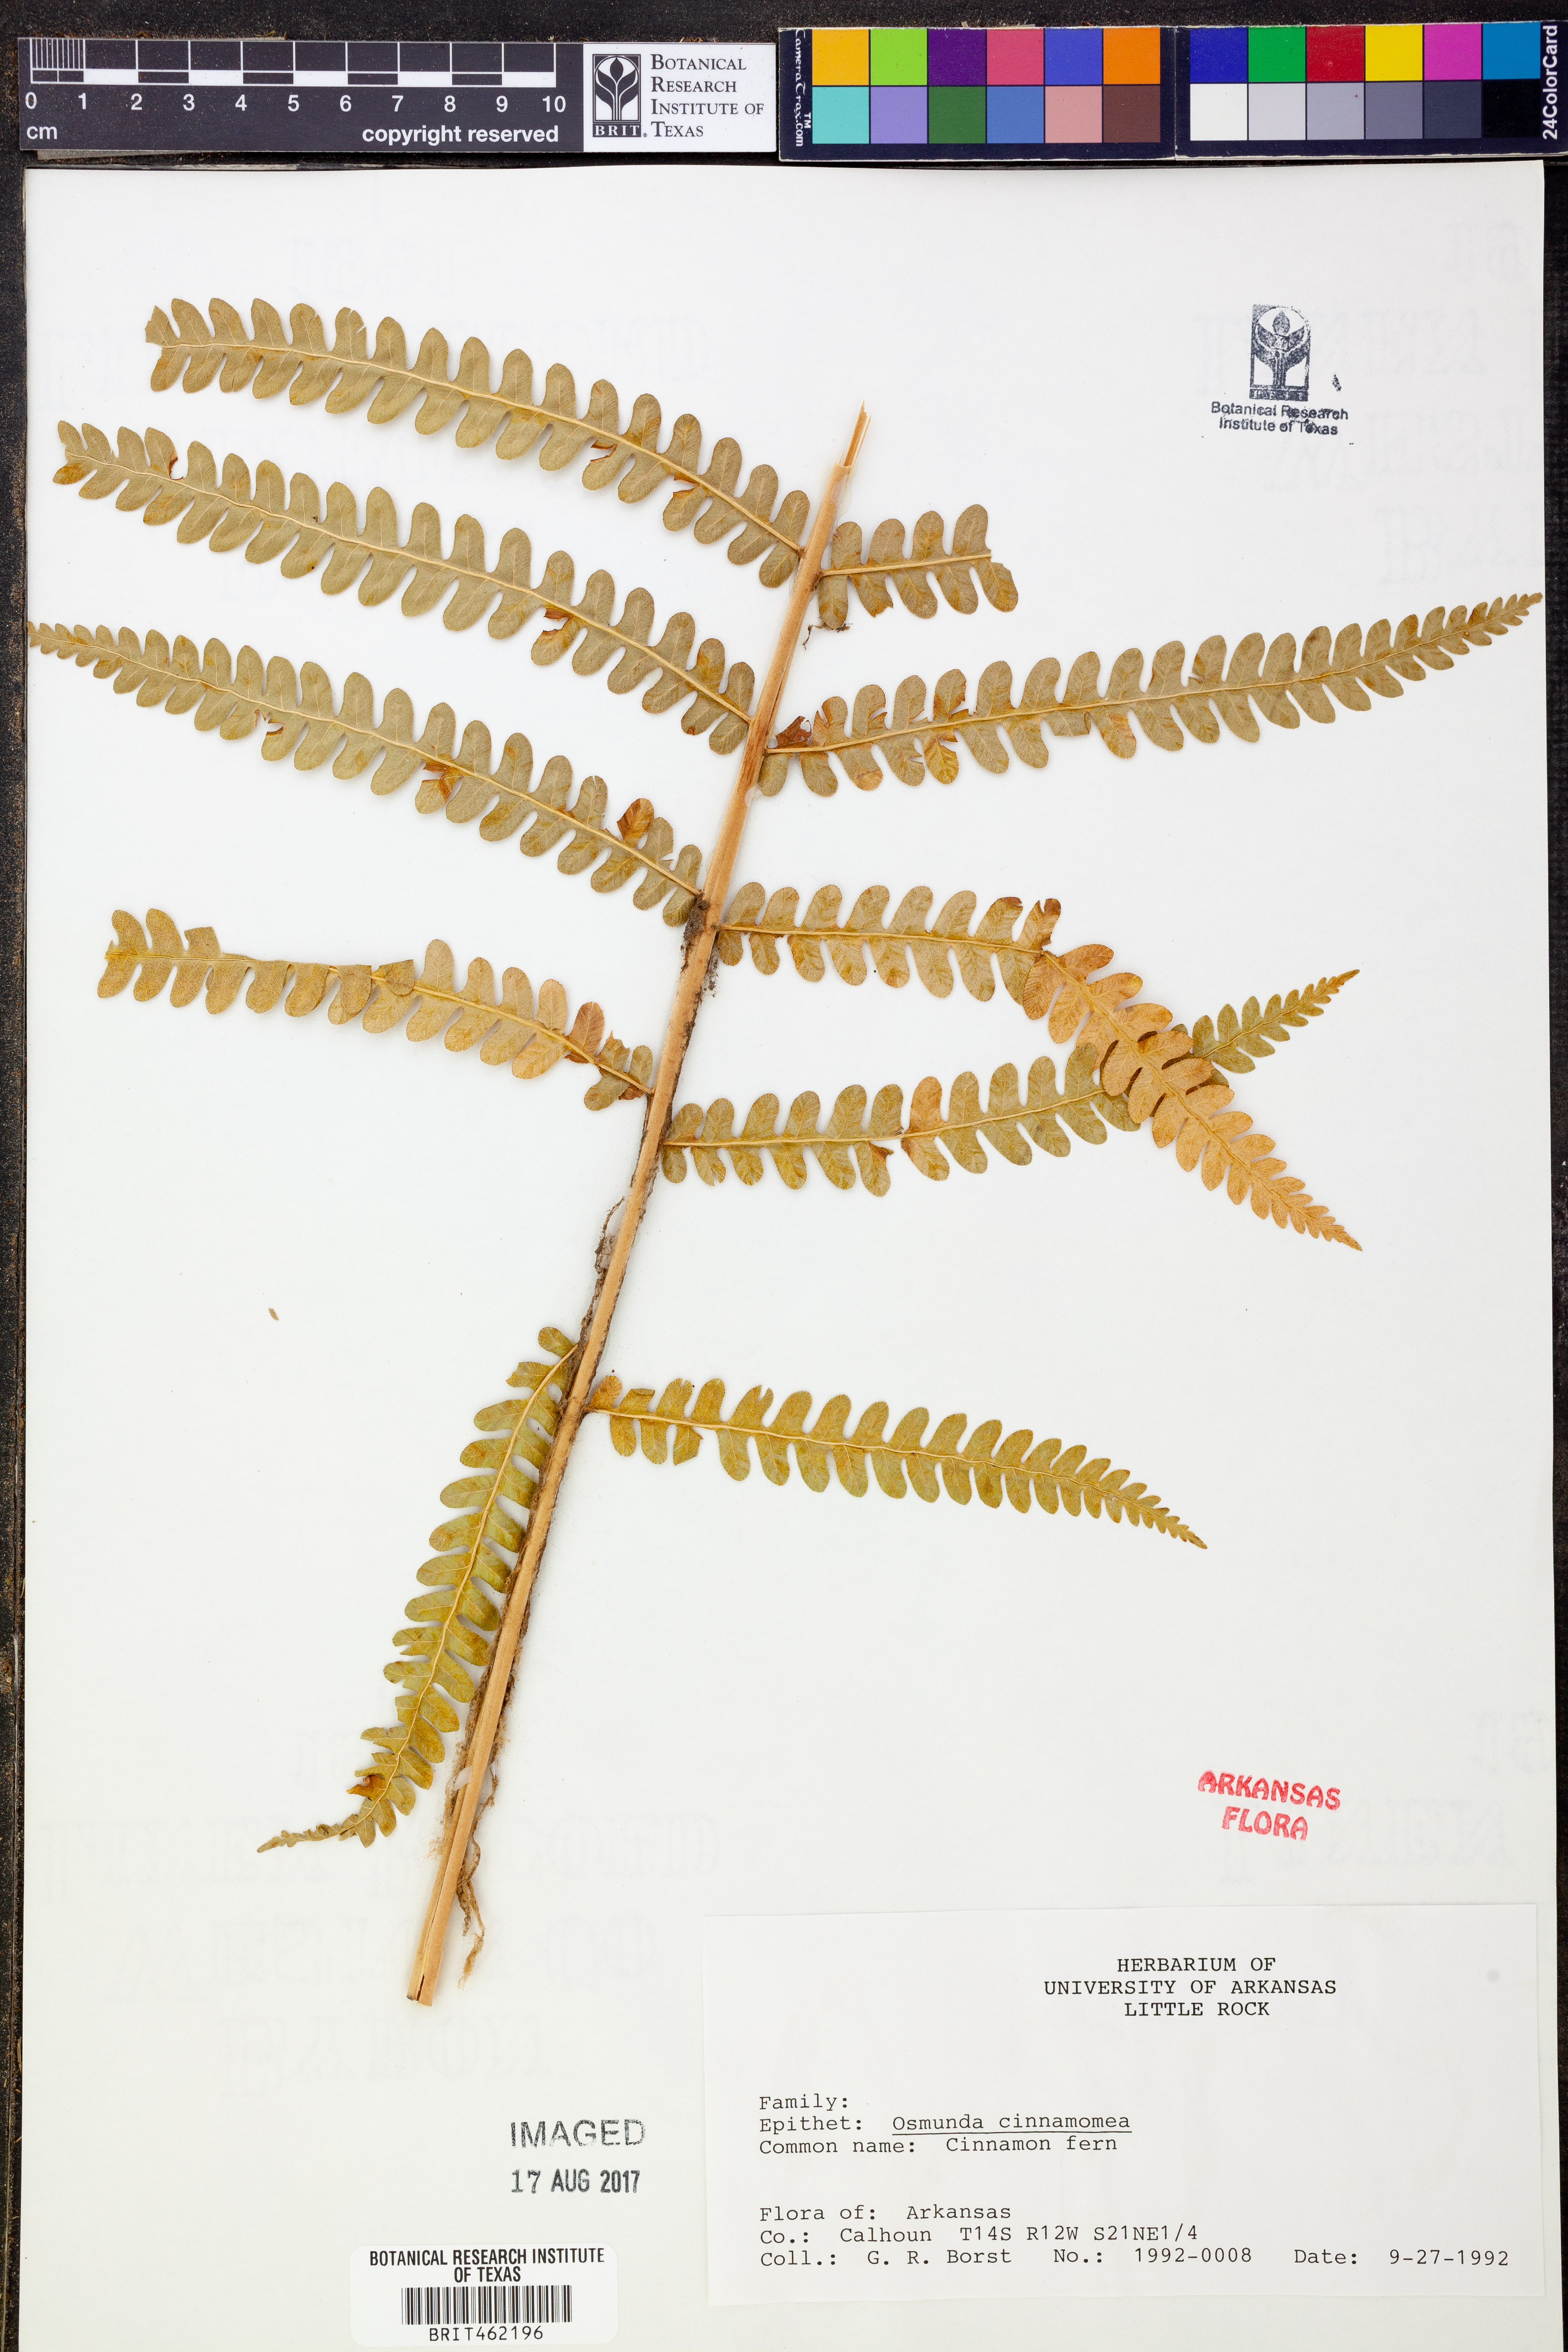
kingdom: Plantae
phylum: Tracheophyta
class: Polypodiopsida
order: Osmundales
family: Osmundaceae
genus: Osmundastrum
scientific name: Osmundastrum cinnamomeum
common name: Cinnamon fern
